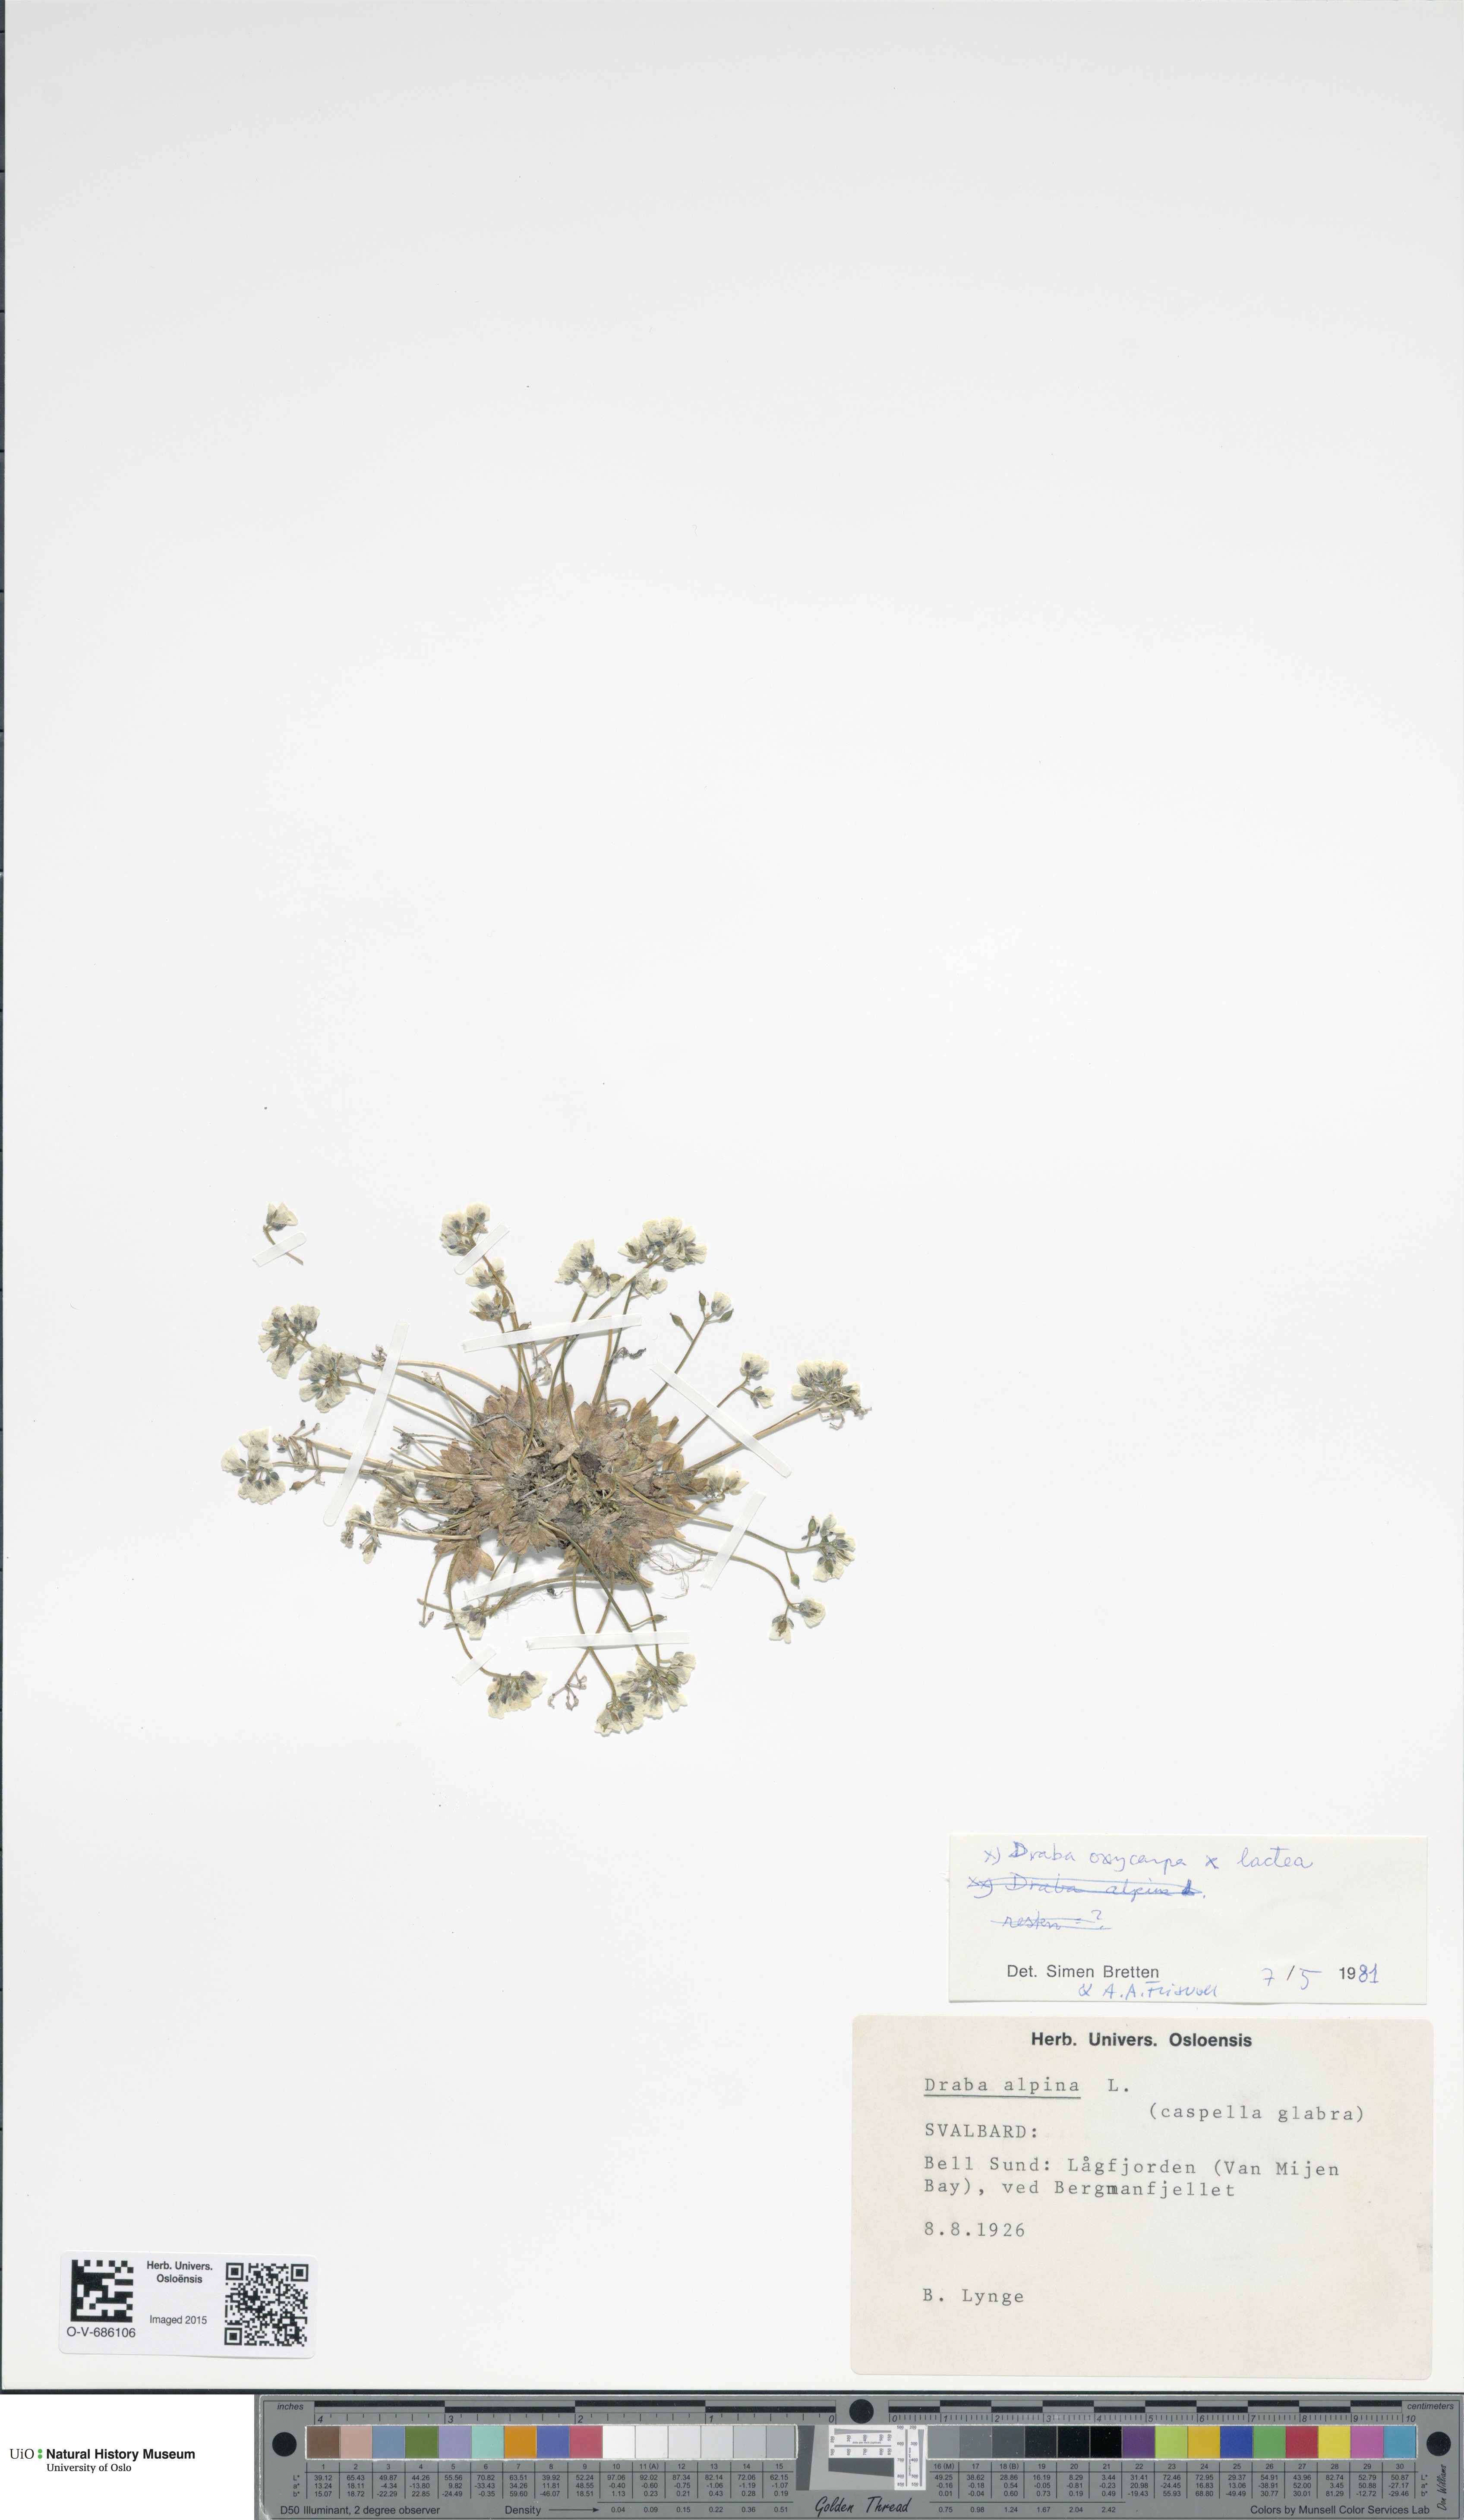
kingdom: Plantae
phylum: Tracheophyta
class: Magnoliopsida
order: Brassicales
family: Brassicaceae
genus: Draba
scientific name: Draba
